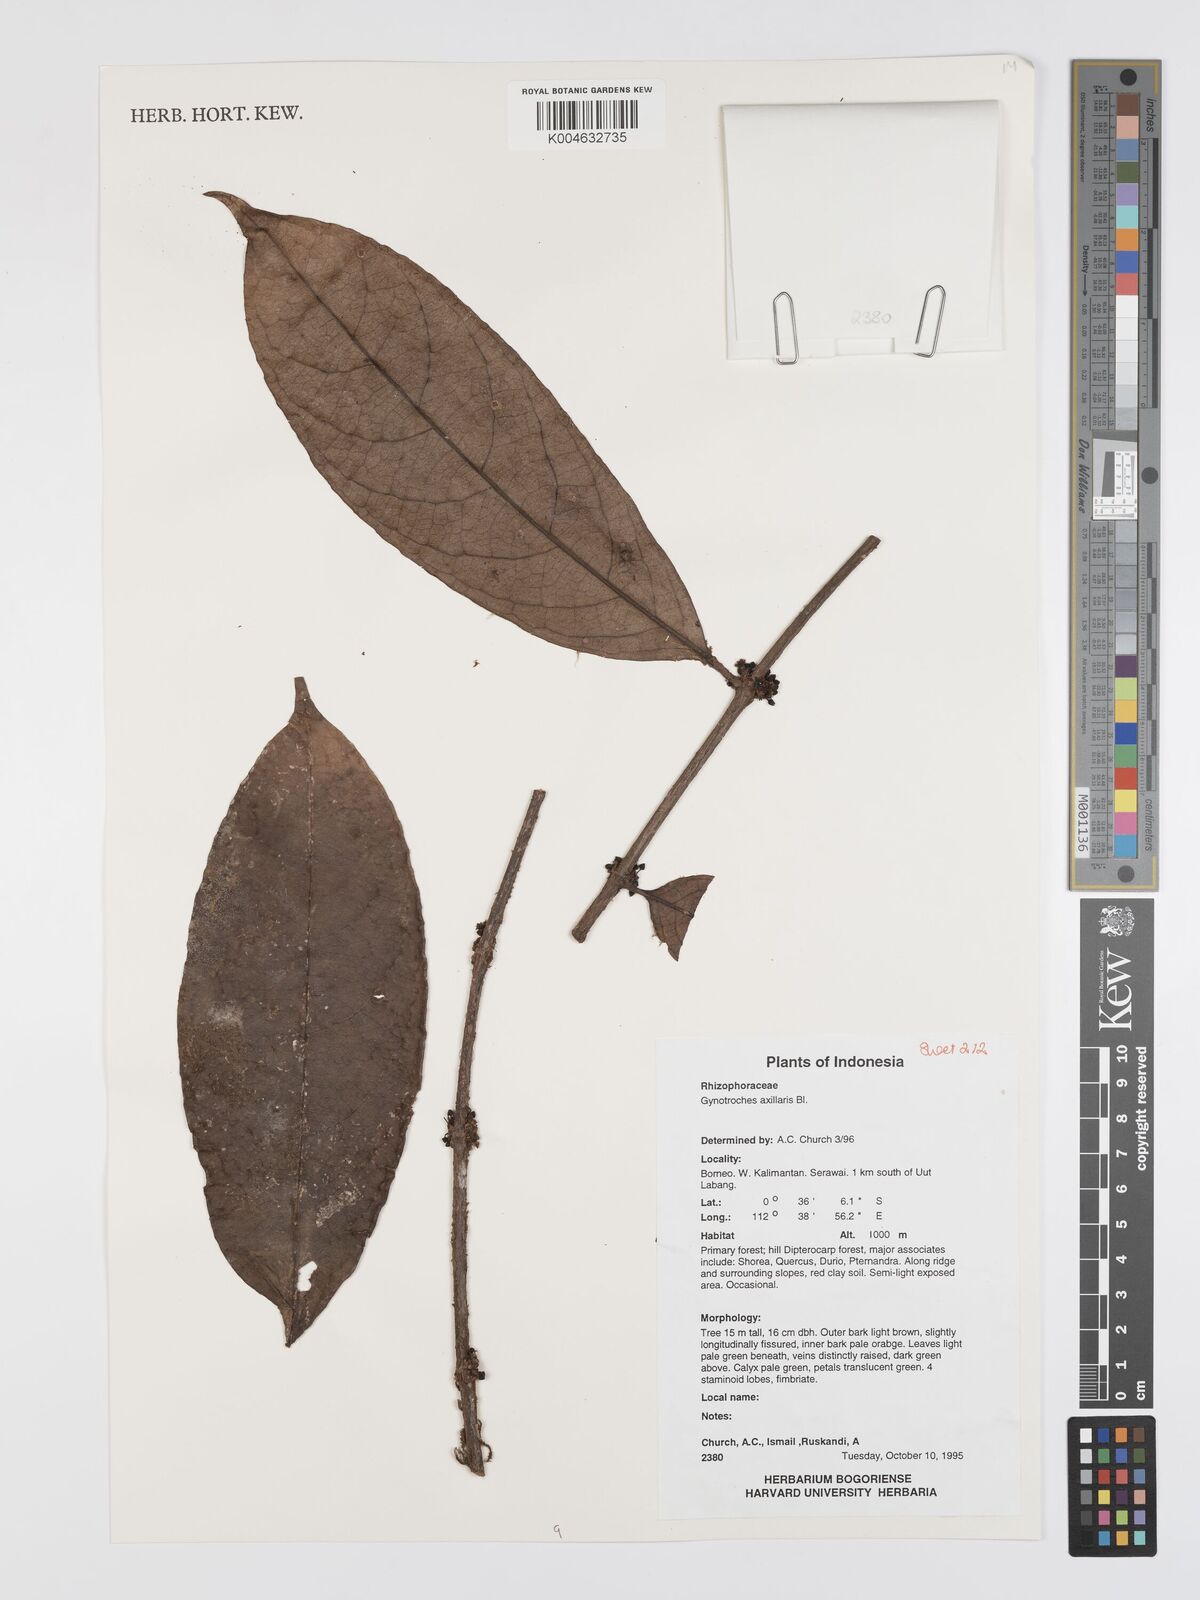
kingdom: Plantae
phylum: Tracheophyta
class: Magnoliopsida
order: Malpighiales
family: Rhizophoraceae
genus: Gynotroches
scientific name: Gynotroches axillaris
